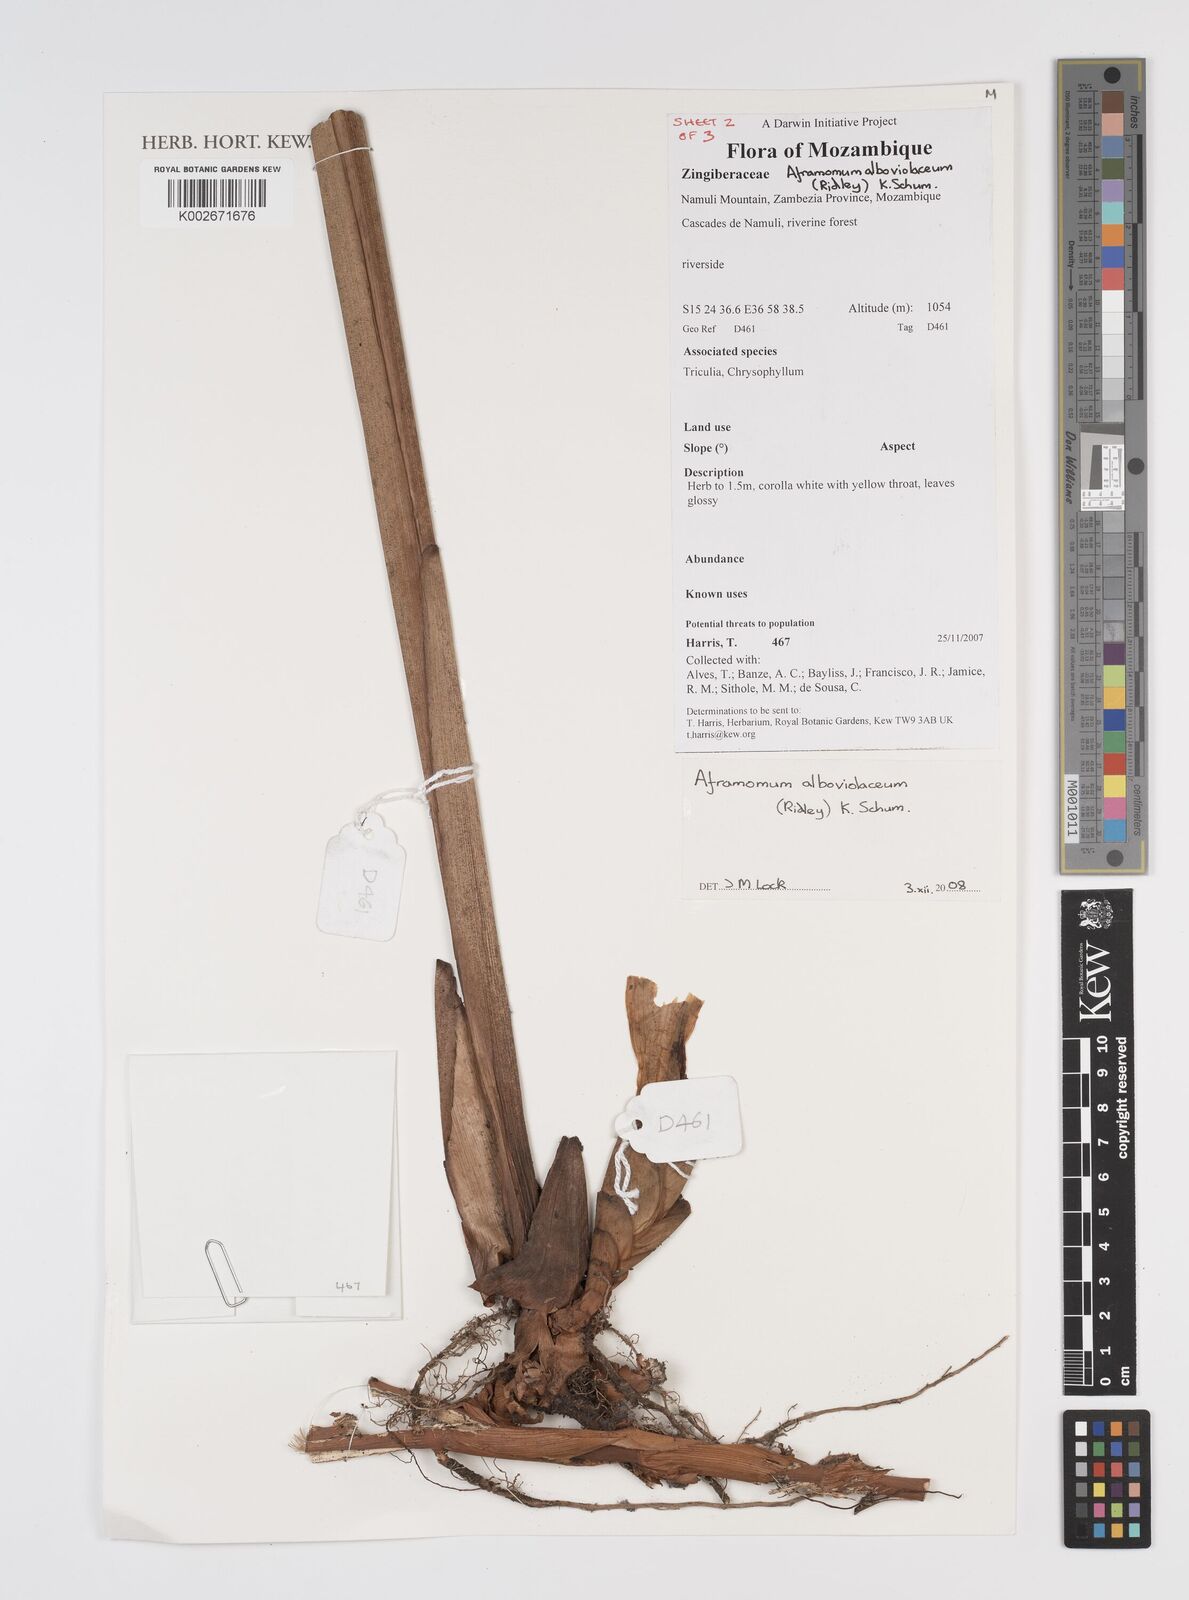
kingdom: Plantae
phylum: Tracheophyta
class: Liliopsida
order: Zingiberales
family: Zingiberaceae
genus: Aframomum
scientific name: Aframomum alboviolaceum
